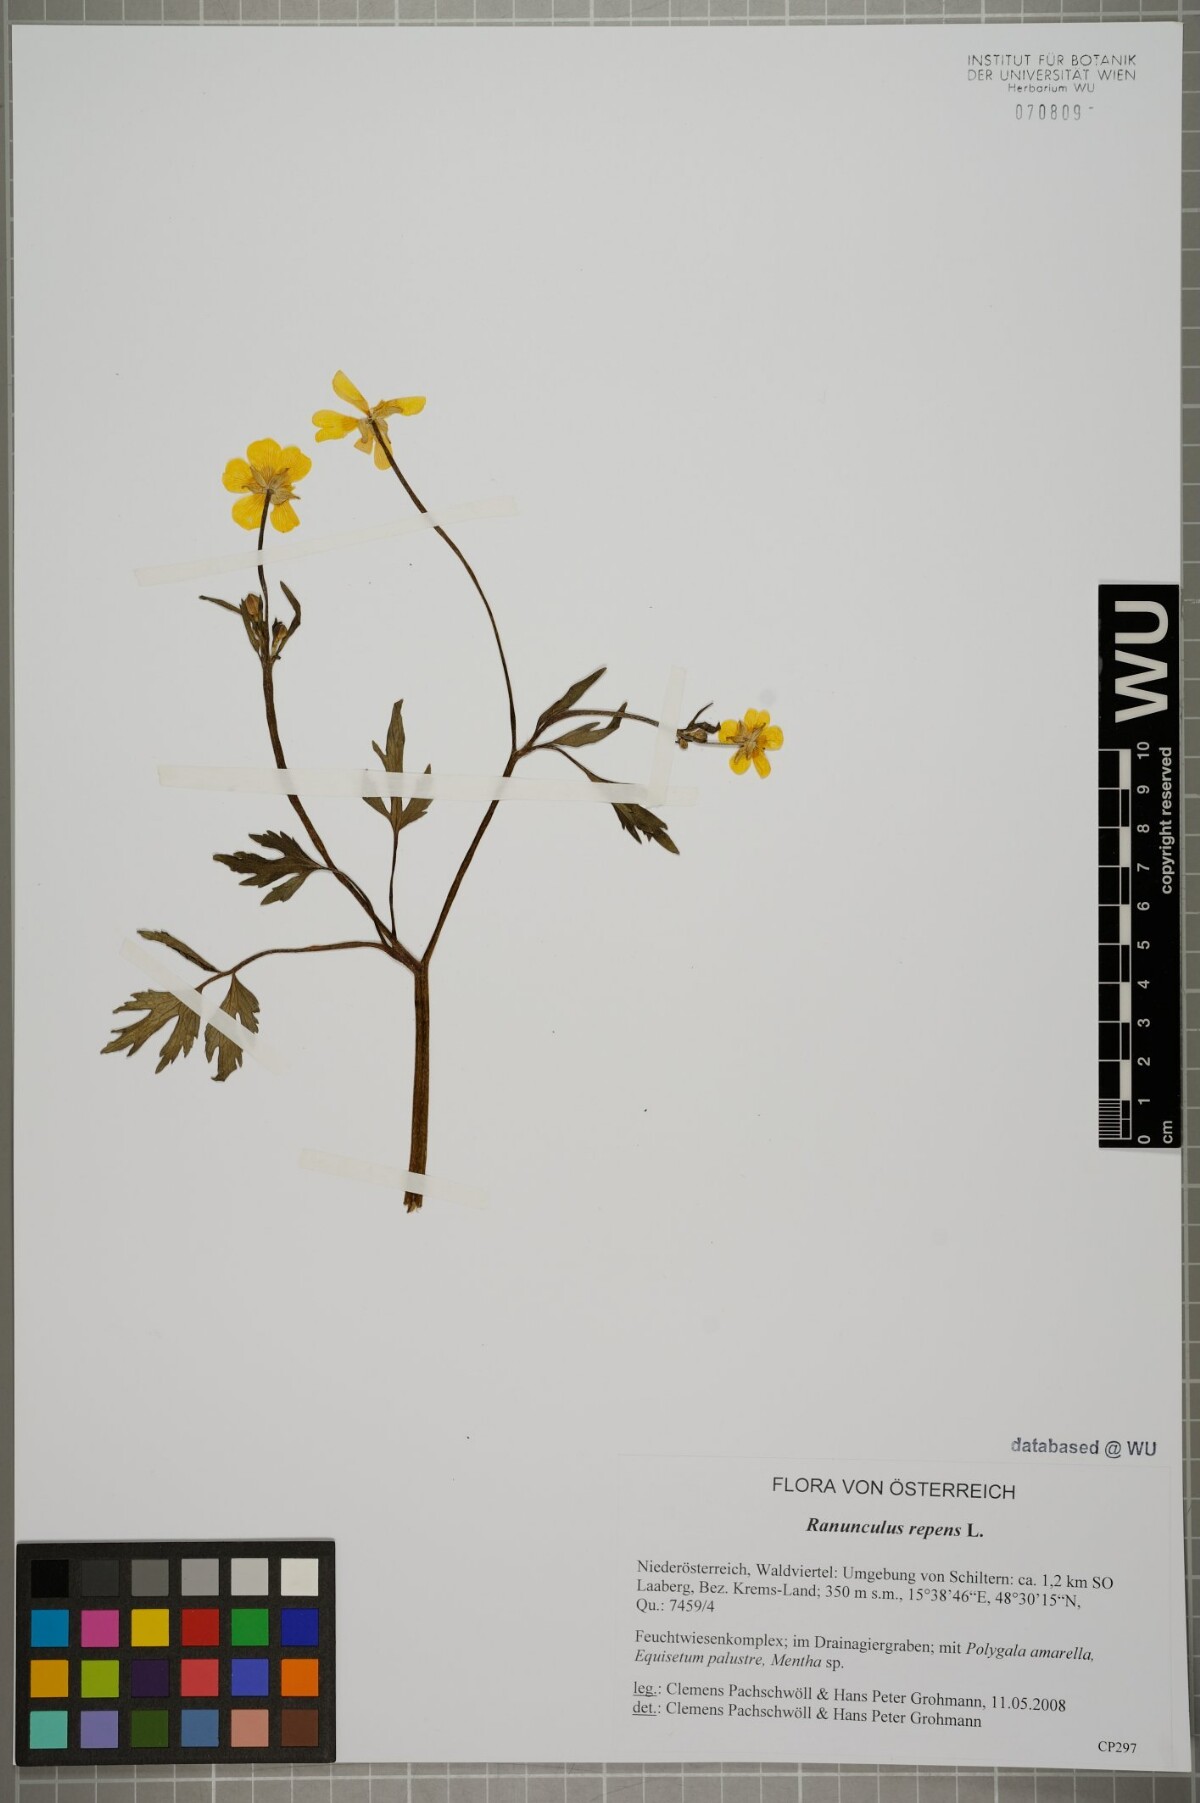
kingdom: Plantae
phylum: Tracheophyta
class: Magnoliopsida
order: Ranunculales
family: Ranunculaceae
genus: Ranunculus
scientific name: Ranunculus repens
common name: Creeping buttercup
